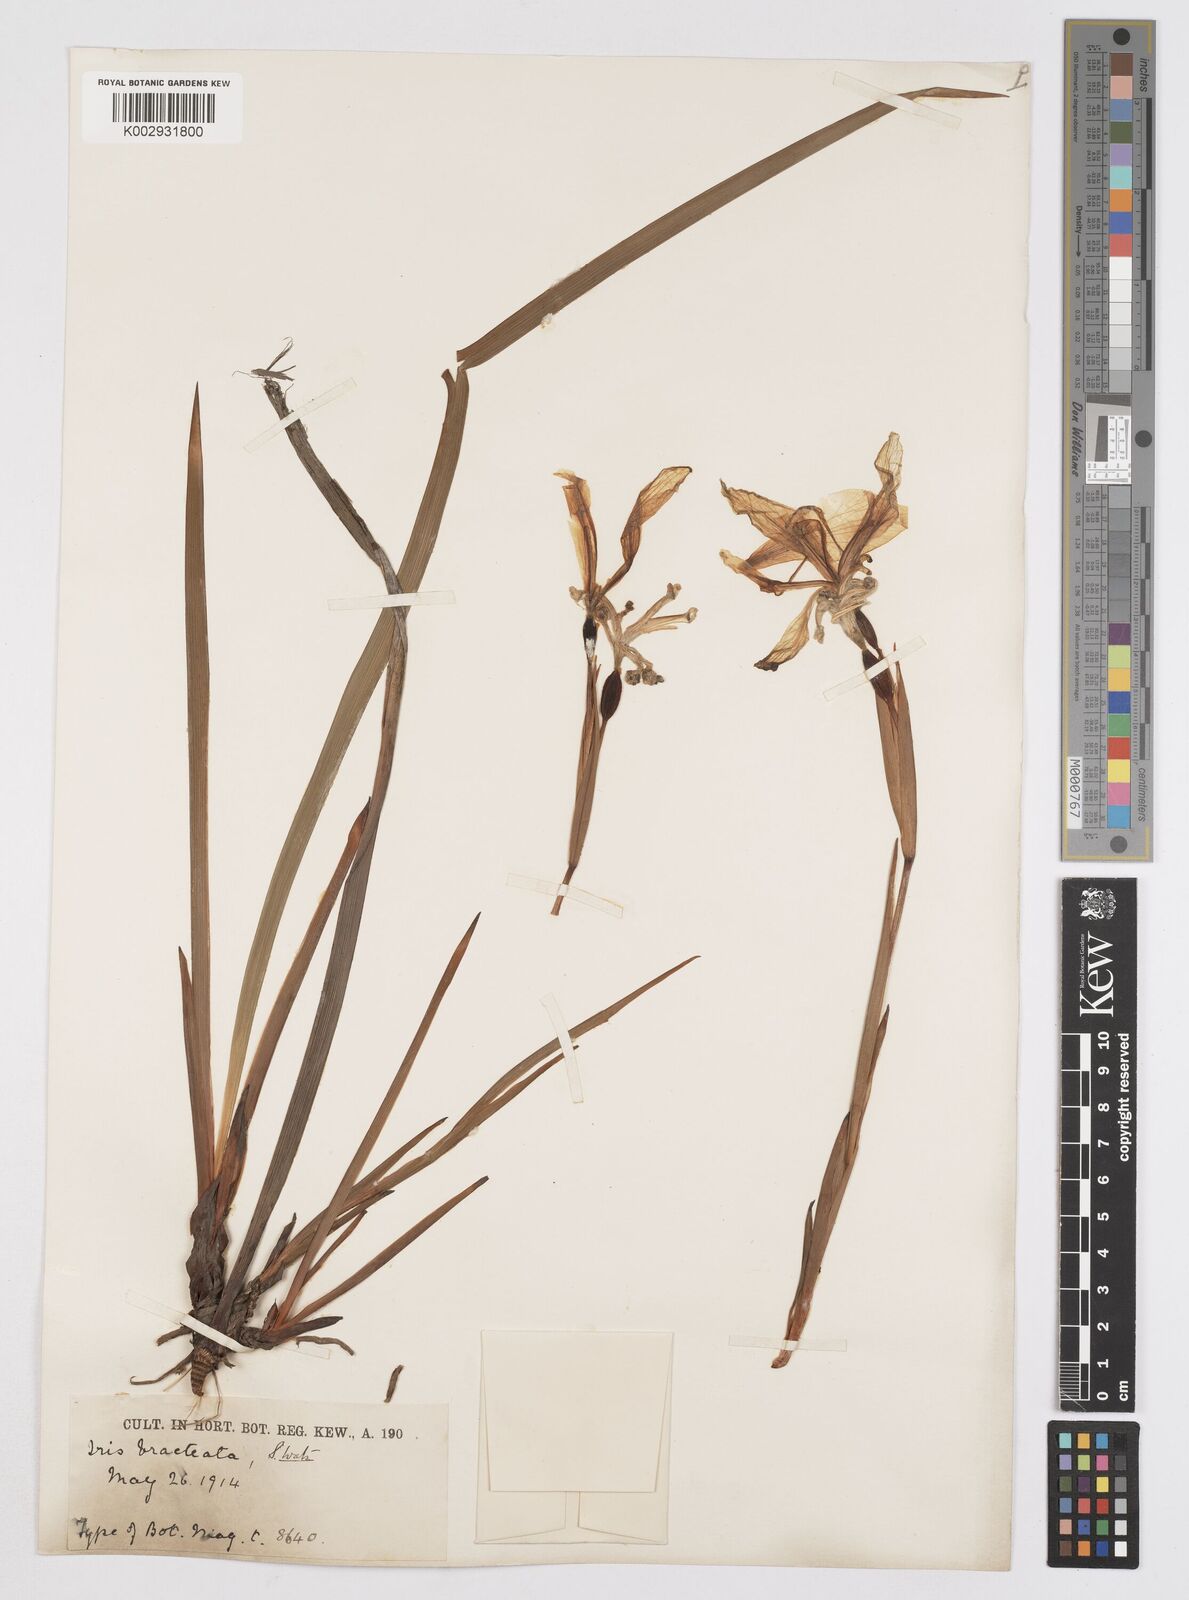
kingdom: Plantae
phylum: Tracheophyta
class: Liliopsida
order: Asparagales
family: Iridaceae
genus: Iris
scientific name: Iris bracteata
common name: Siskiyou iris
